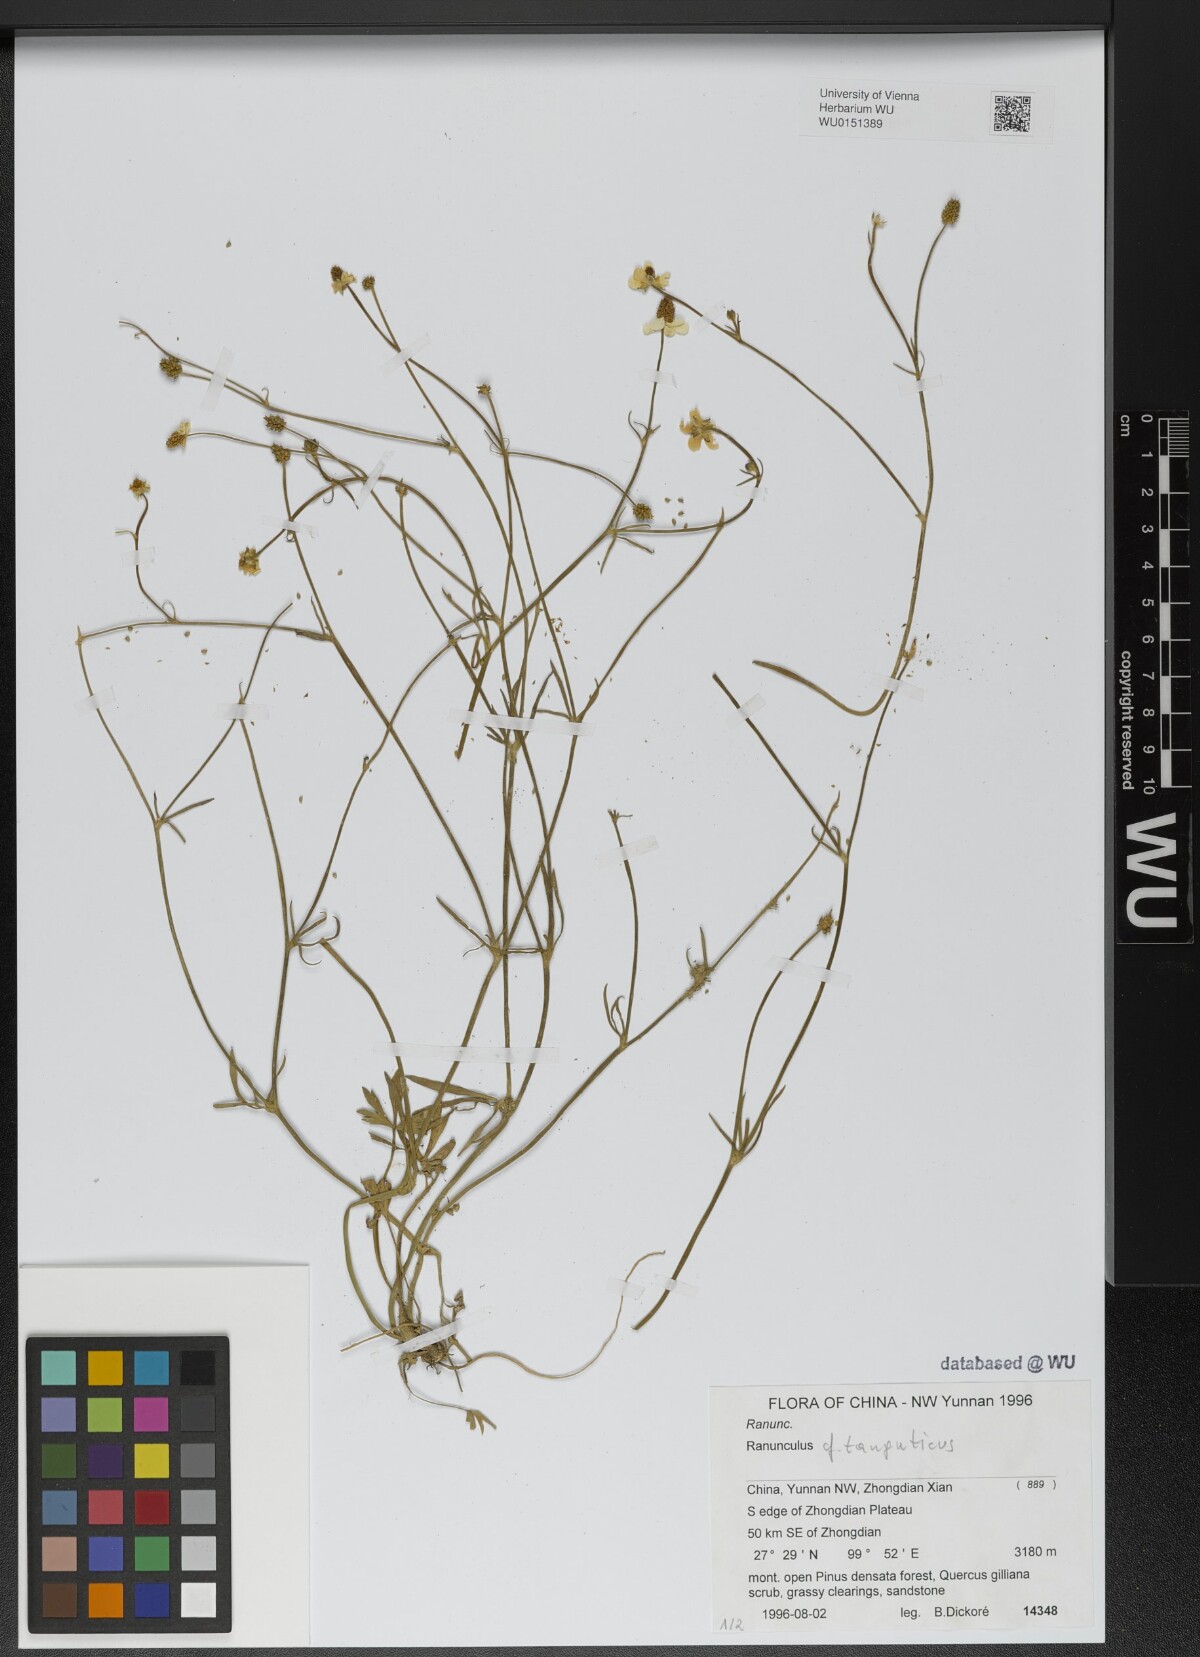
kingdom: Plantae
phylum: Tracheophyta
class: Magnoliopsida
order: Ranunculales
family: Ranunculaceae
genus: Ranunculus
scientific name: Ranunculus brotherusii
